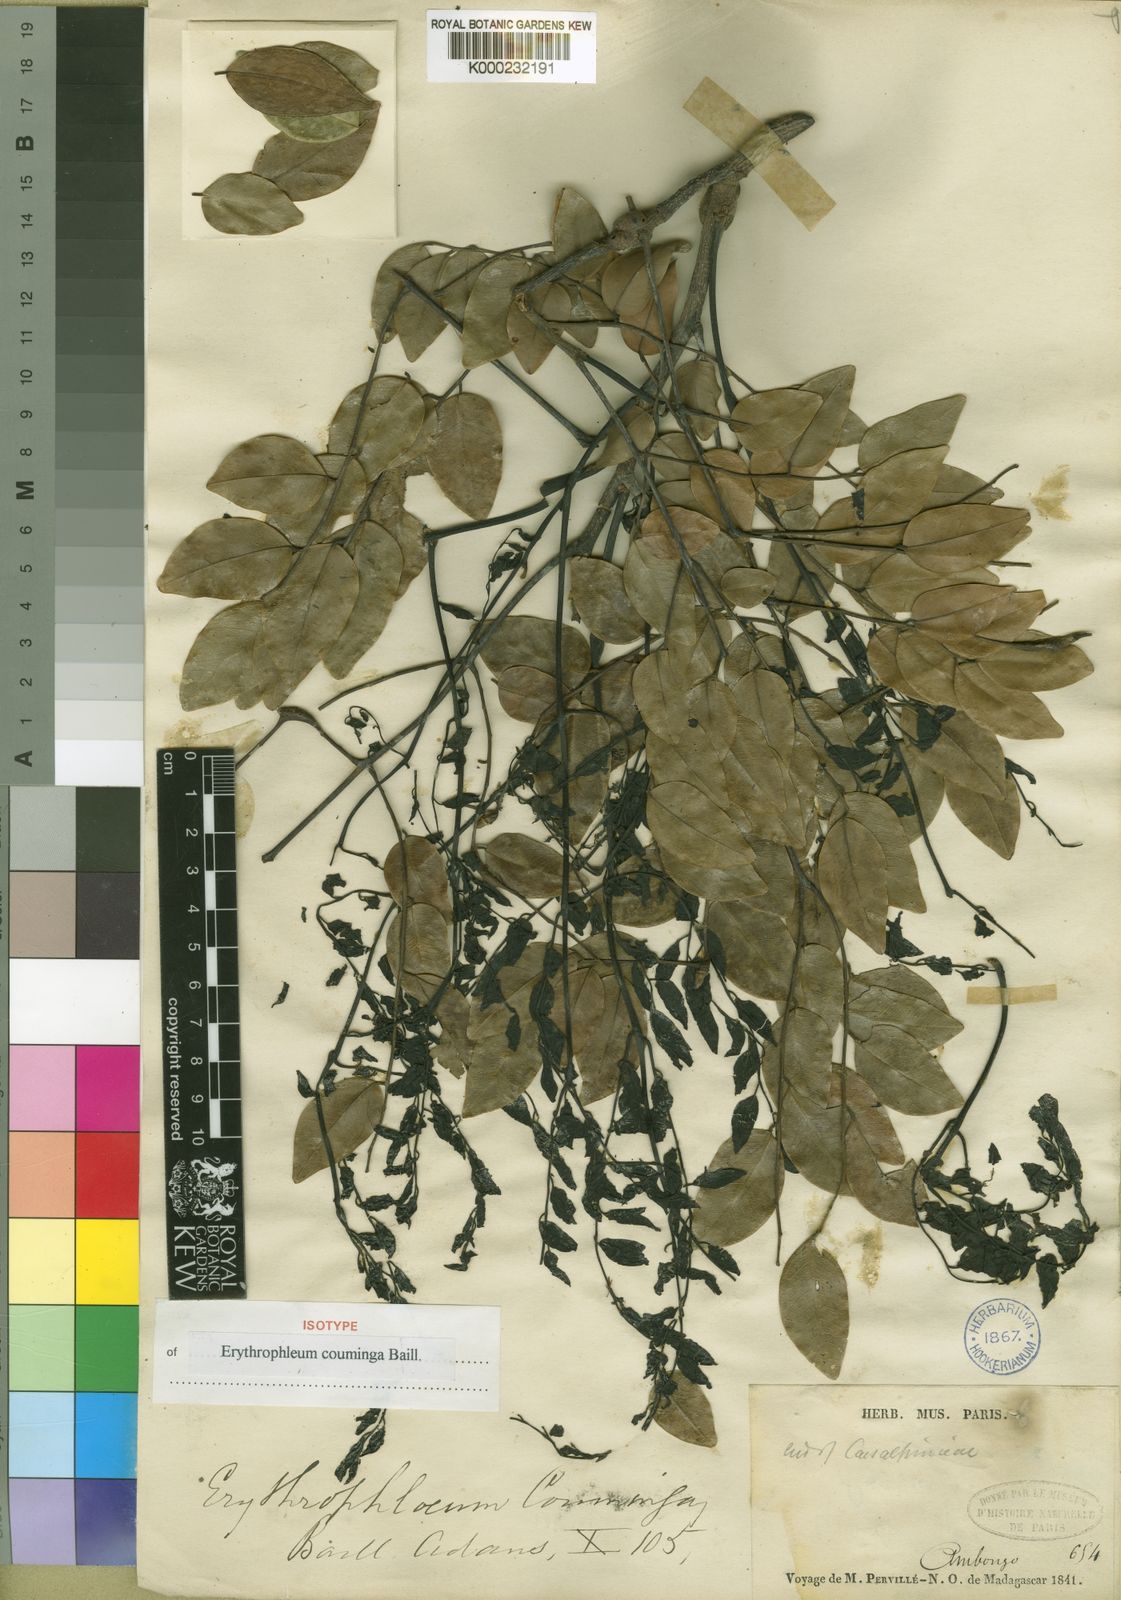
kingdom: Plantae
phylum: Tracheophyta
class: Magnoliopsida
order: Fabales
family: Fabaceae
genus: Erythrophleum
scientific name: Erythrophleum
